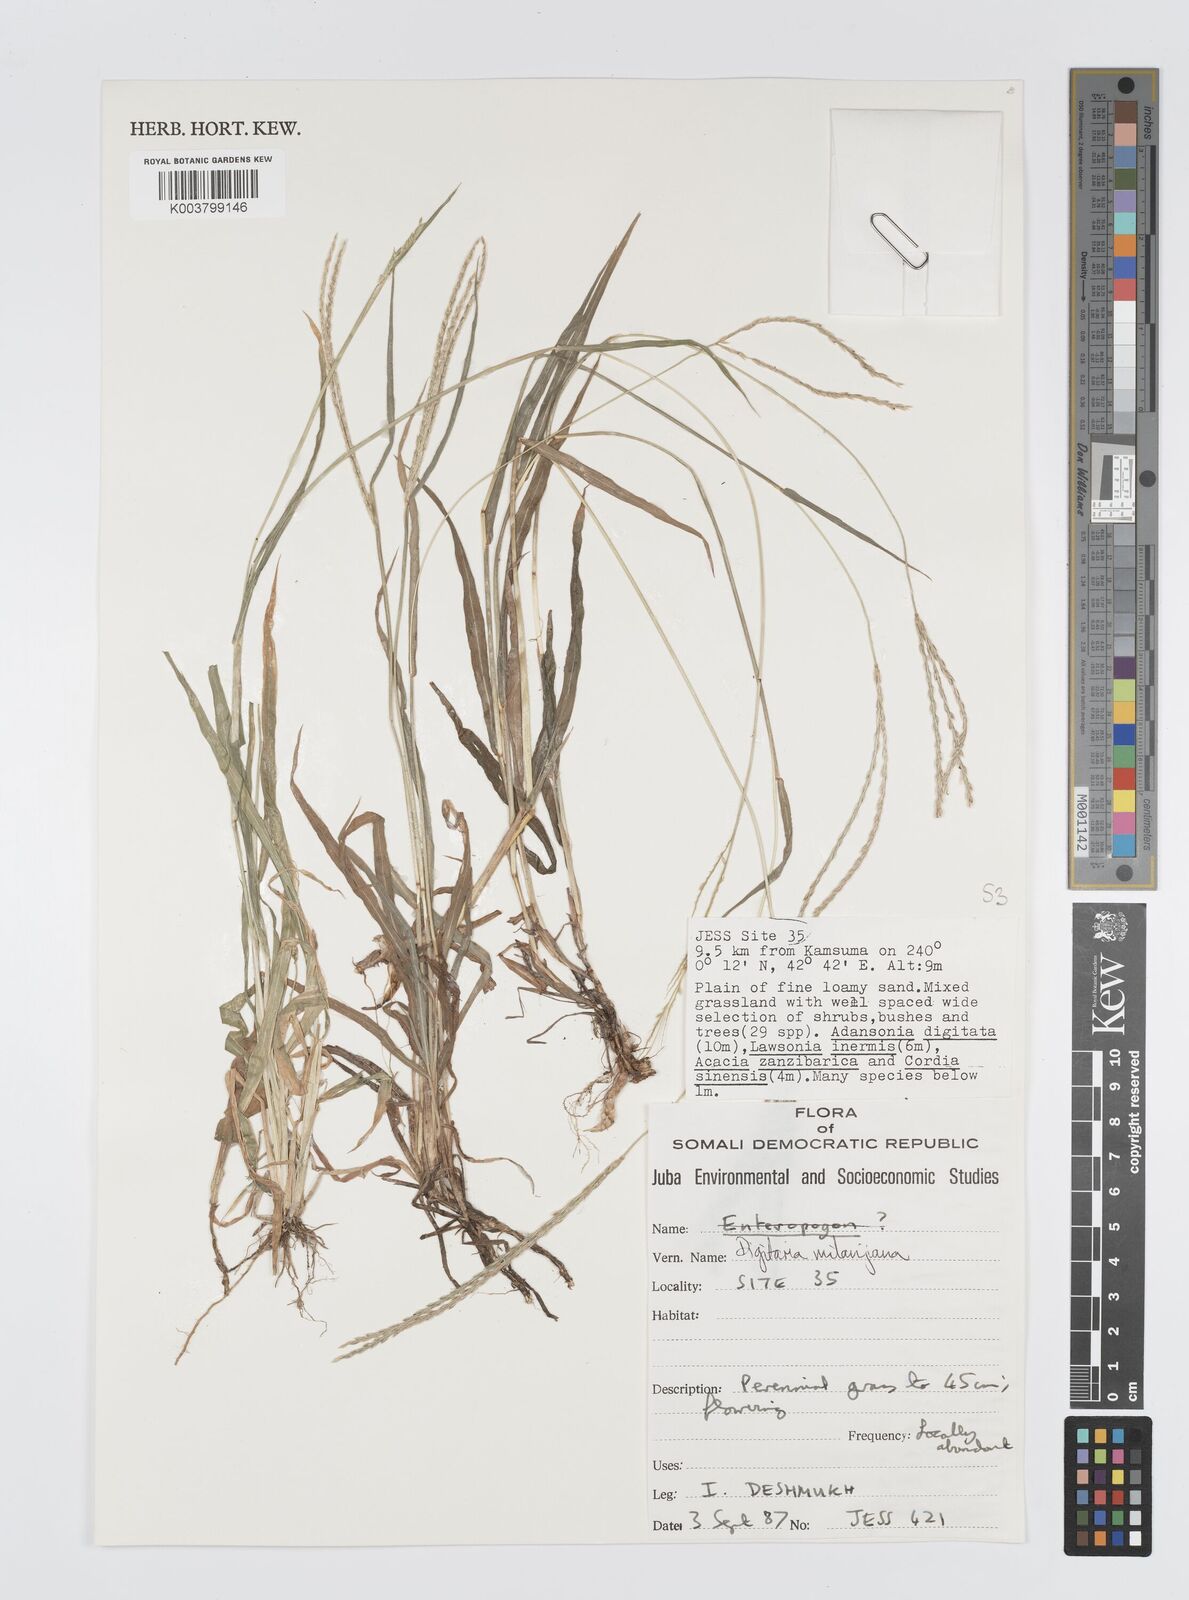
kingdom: Plantae
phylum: Tracheophyta
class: Liliopsida
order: Poales
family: Poaceae
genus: Digitaria
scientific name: Digitaria milanjiana
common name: Madagascar crabgrass
